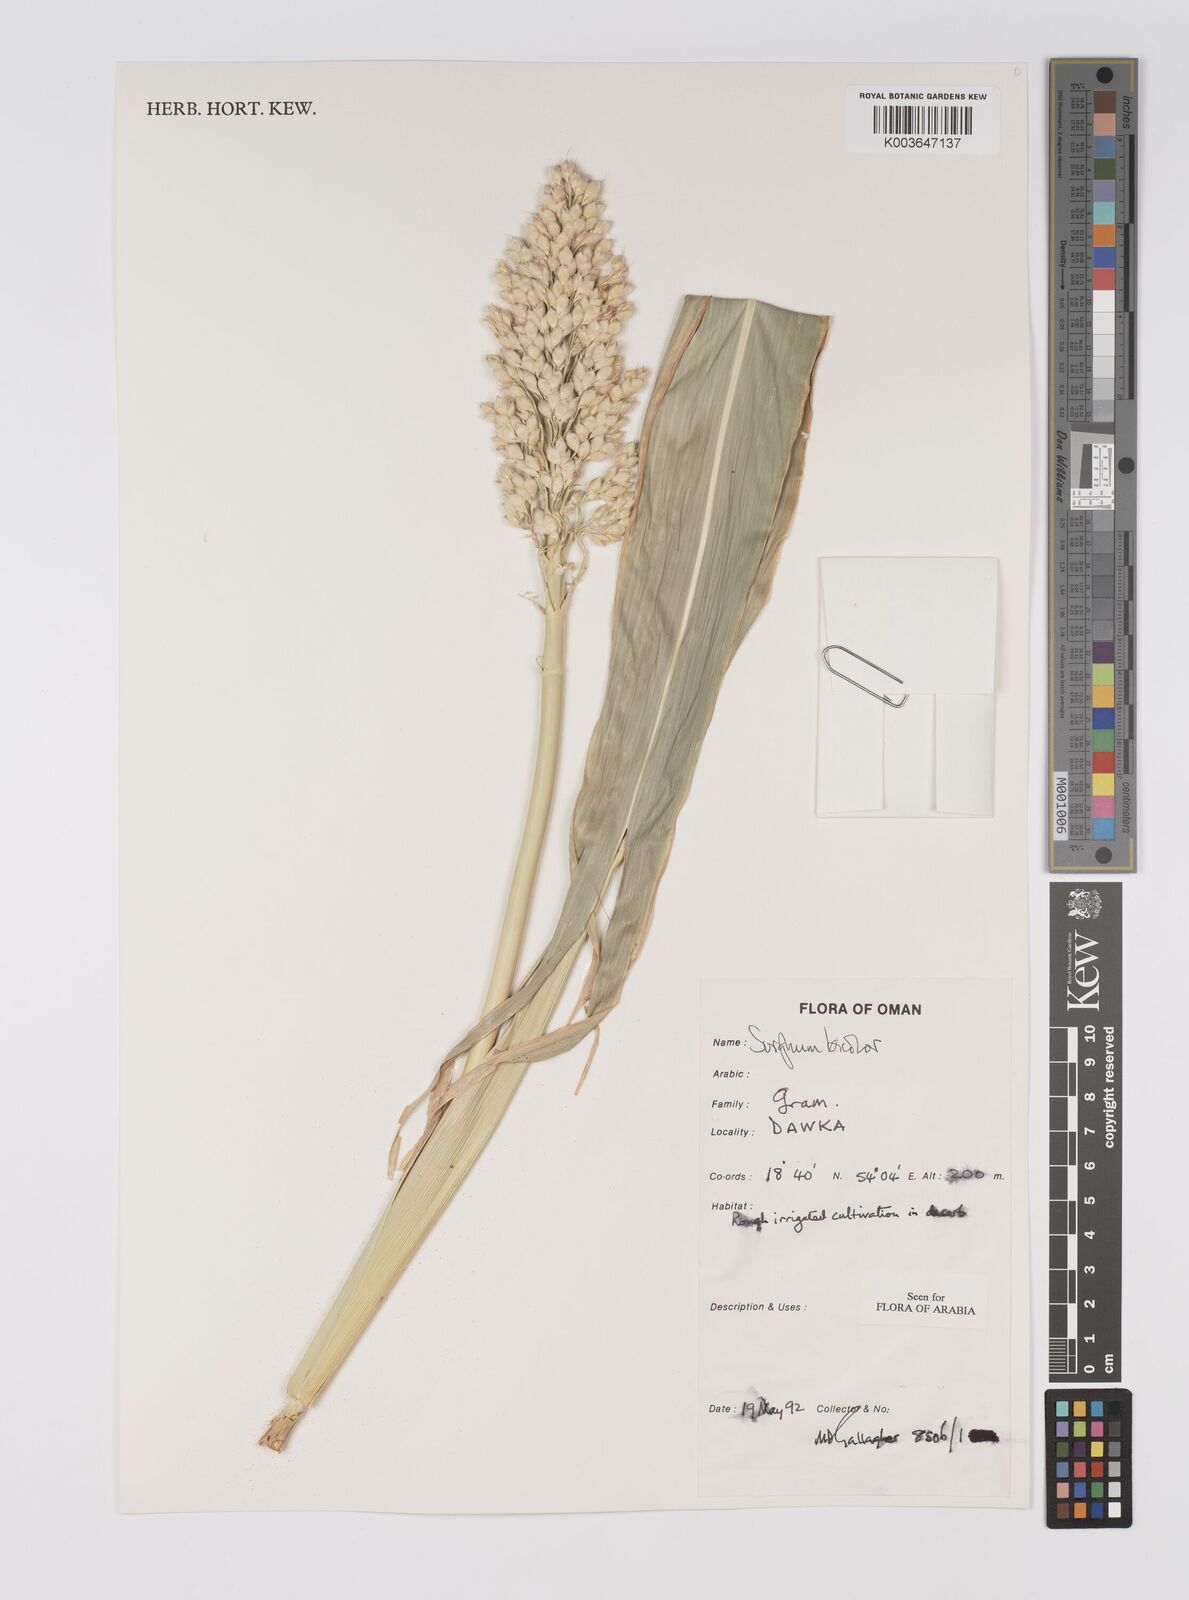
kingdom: Plantae
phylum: Tracheophyta
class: Liliopsida
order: Poales
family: Poaceae
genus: Sorghum
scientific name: Sorghum bicolor
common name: Sorghum
